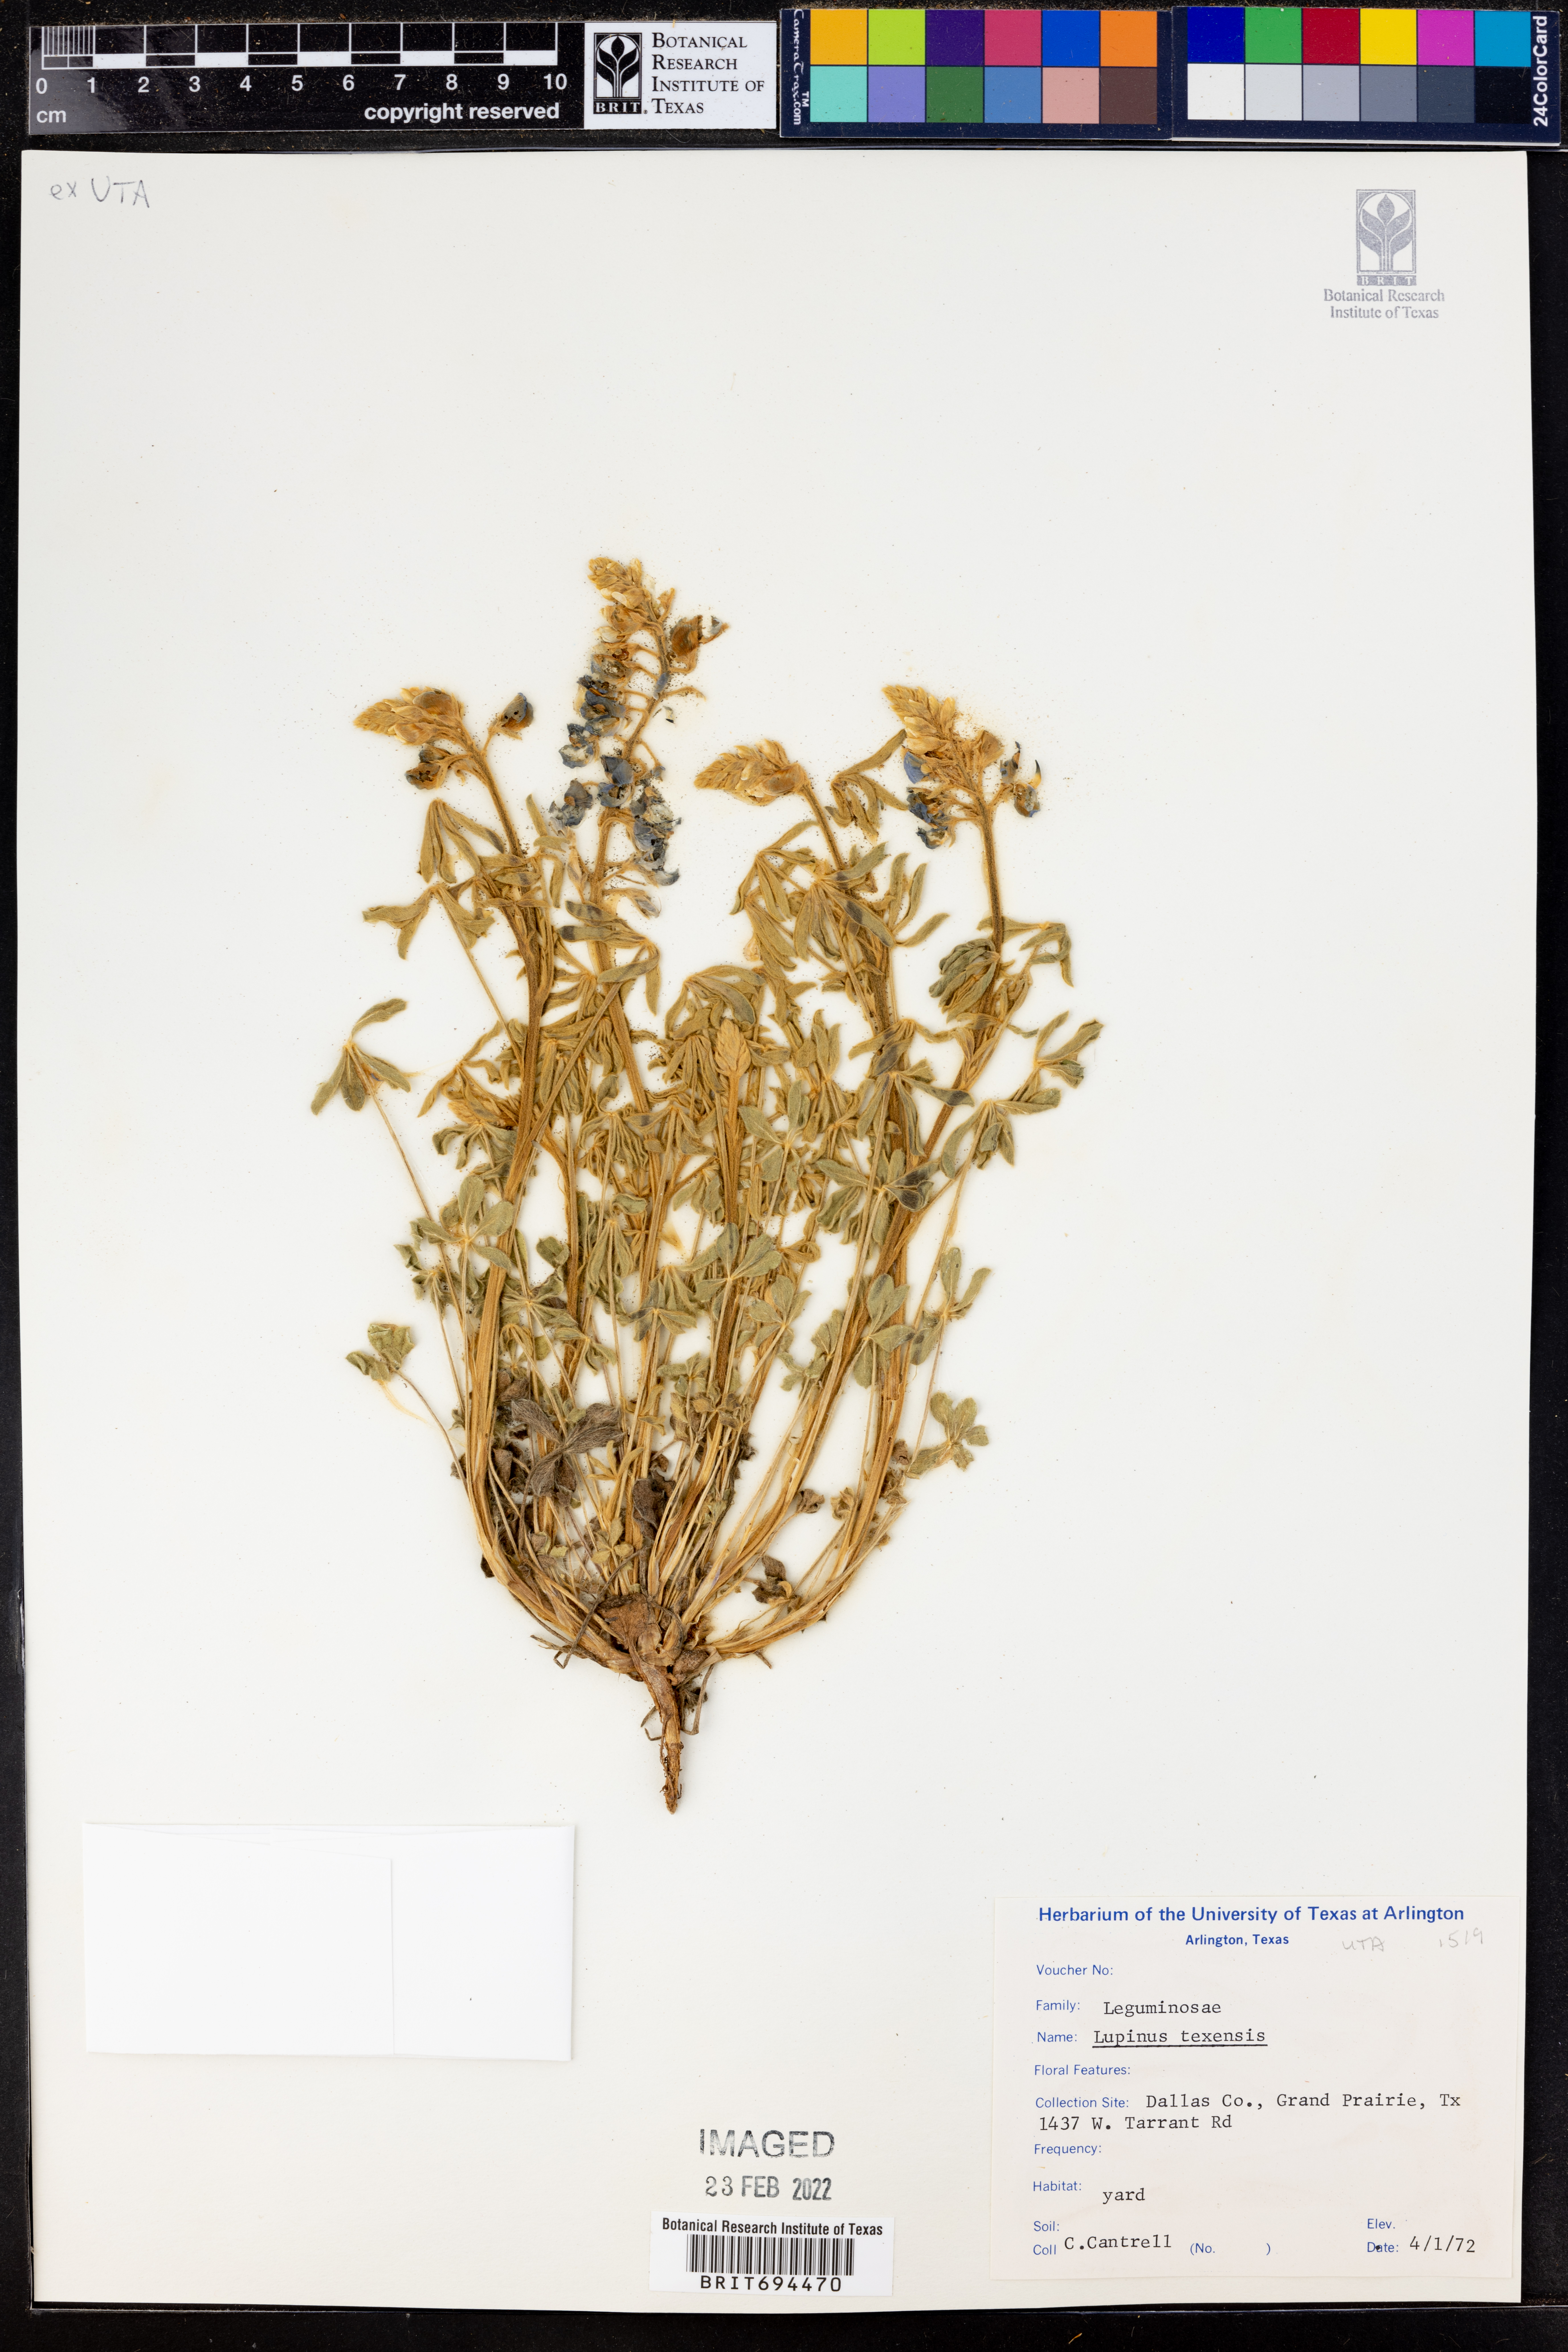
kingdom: Plantae
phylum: Tracheophyta
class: Magnoliopsida
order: Fabales
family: Fabaceae
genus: Lupinus
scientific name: Lupinus texensis
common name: Texas bluebonnet
